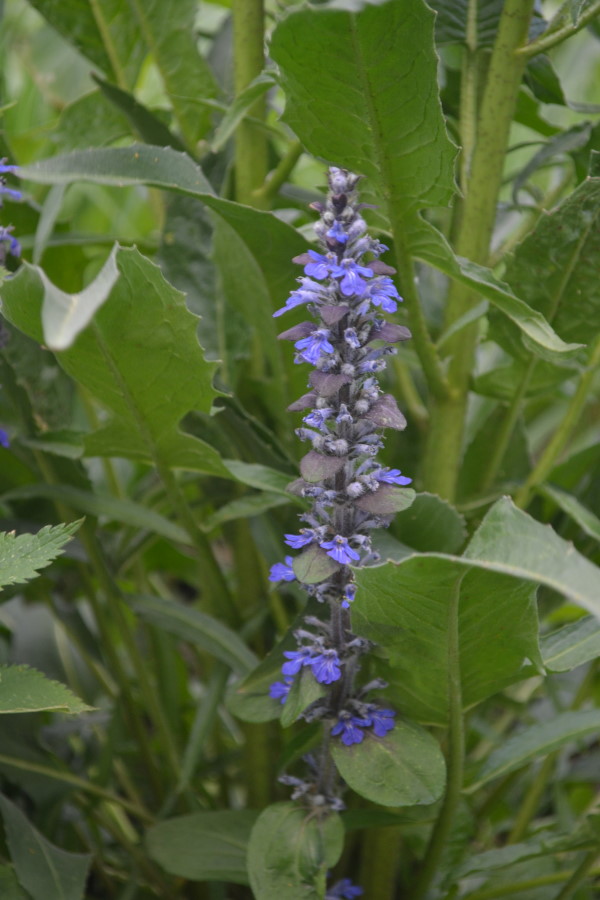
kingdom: Plantae
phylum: Tracheophyta
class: Magnoliopsida
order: Lamiales
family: Lamiaceae
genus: Ajuga
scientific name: Ajuga reptans
